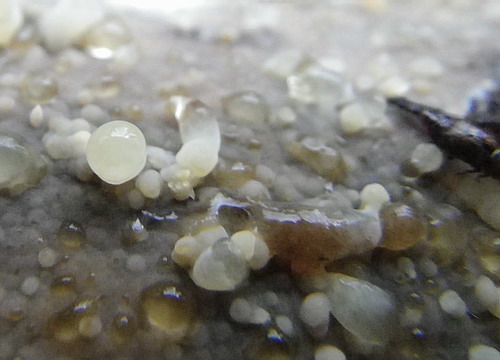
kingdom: Fungi
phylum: Basidiomycota
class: Agaricomycetes
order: Hymenochaetales
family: Rickenellaceae
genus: Peniophorella
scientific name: Peniophorella pubera
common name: dunet kalkskind
